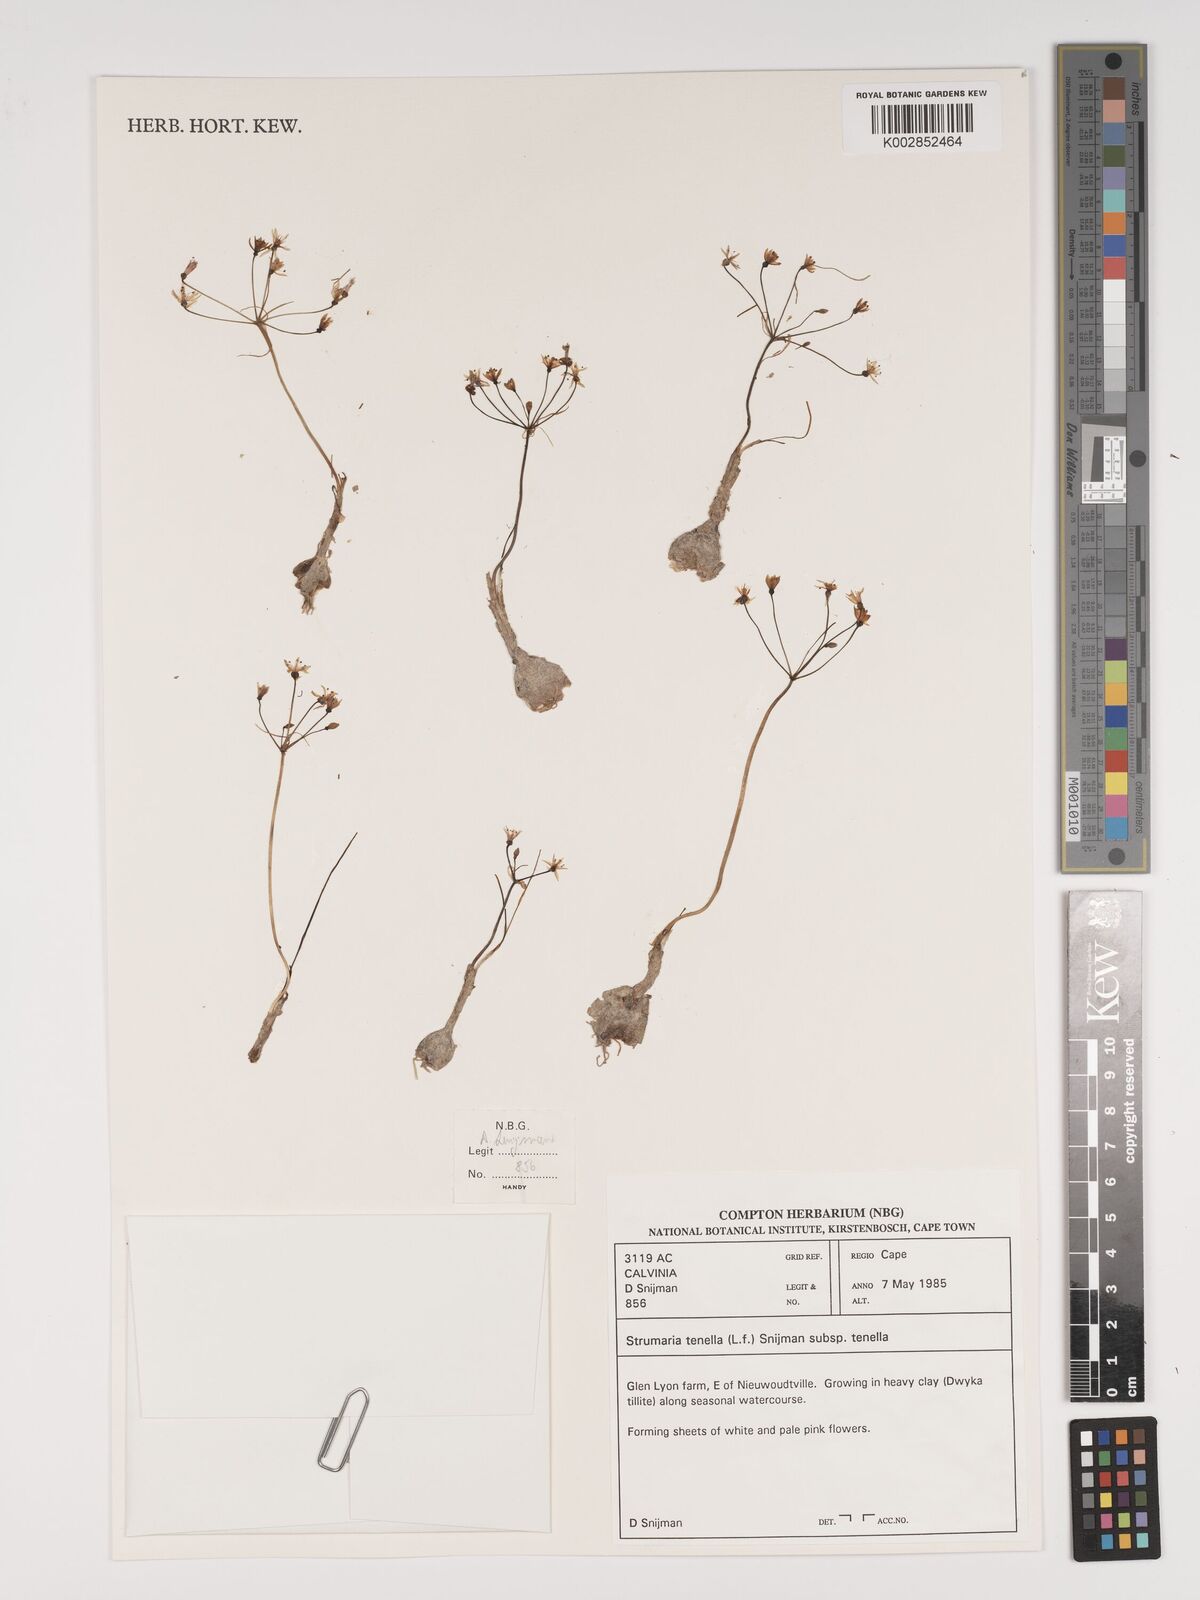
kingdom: Plantae
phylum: Tracheophyta
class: Liliopsida
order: Asparagales
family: Amaryllidaceae
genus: Strumaria
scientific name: Strumaria tenella
